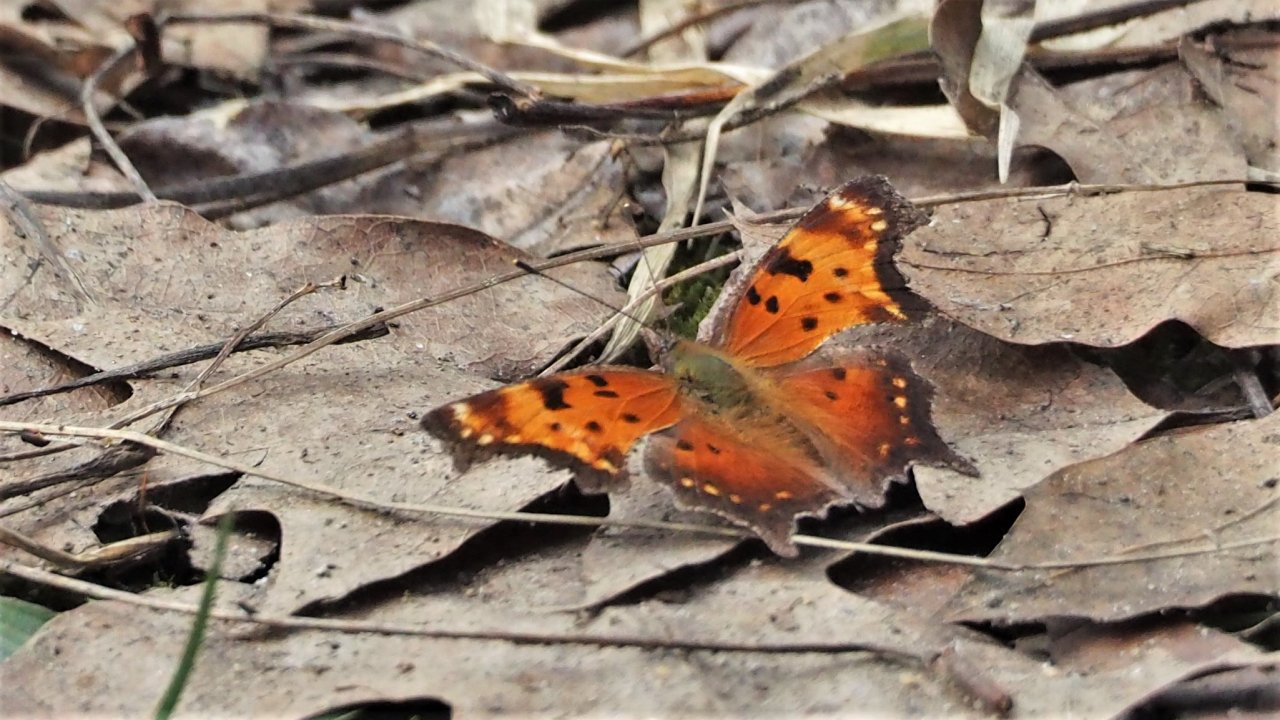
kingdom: Animalia
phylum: Arthropoda
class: Insecta
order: Lepidoptera
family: Nymphalidae
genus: Polygonia
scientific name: Polygonia progne
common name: Gray Comma
